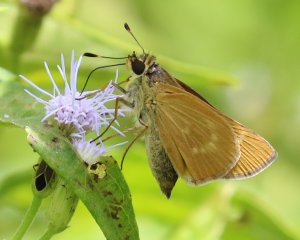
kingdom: Animalia
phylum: Arthropoda
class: Insecta
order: Lepidoptera
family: Hesperiidae
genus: Mellana
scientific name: Mellana eulogius
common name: Common Mellana
